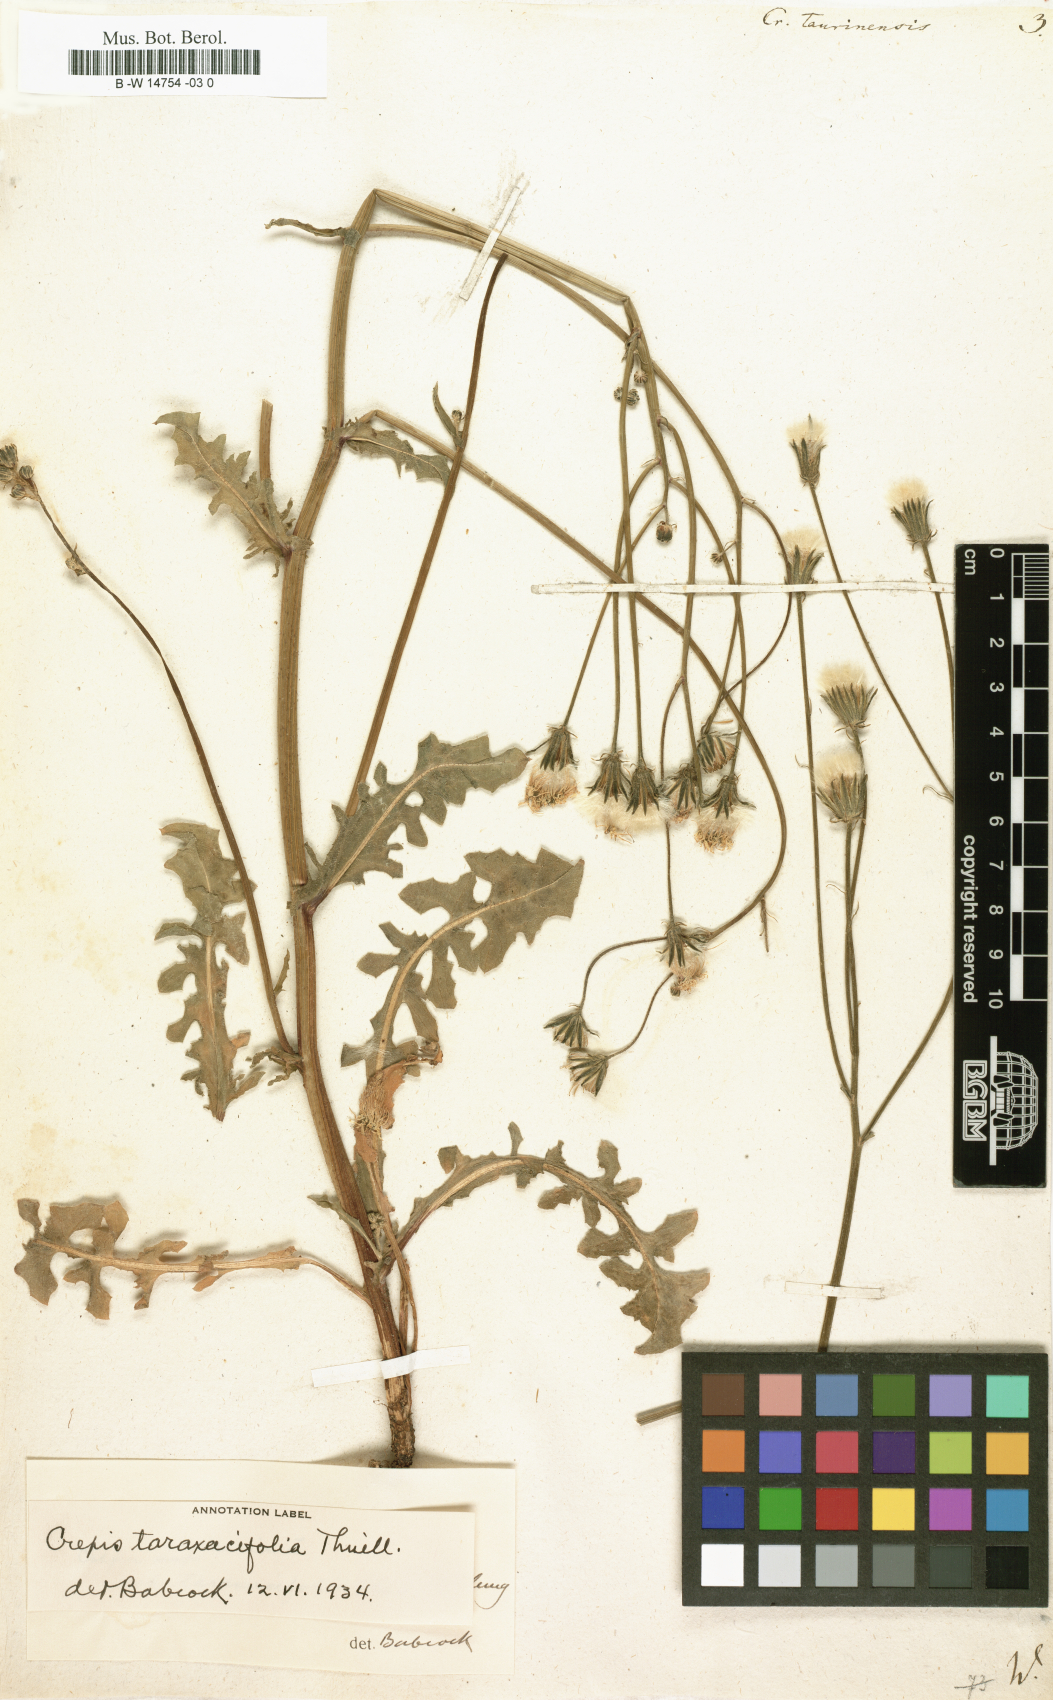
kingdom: Plantae
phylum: Tracheophyta
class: Magnoliopsida
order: Asterales
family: Asteraceae
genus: Crepis
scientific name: Crepis
